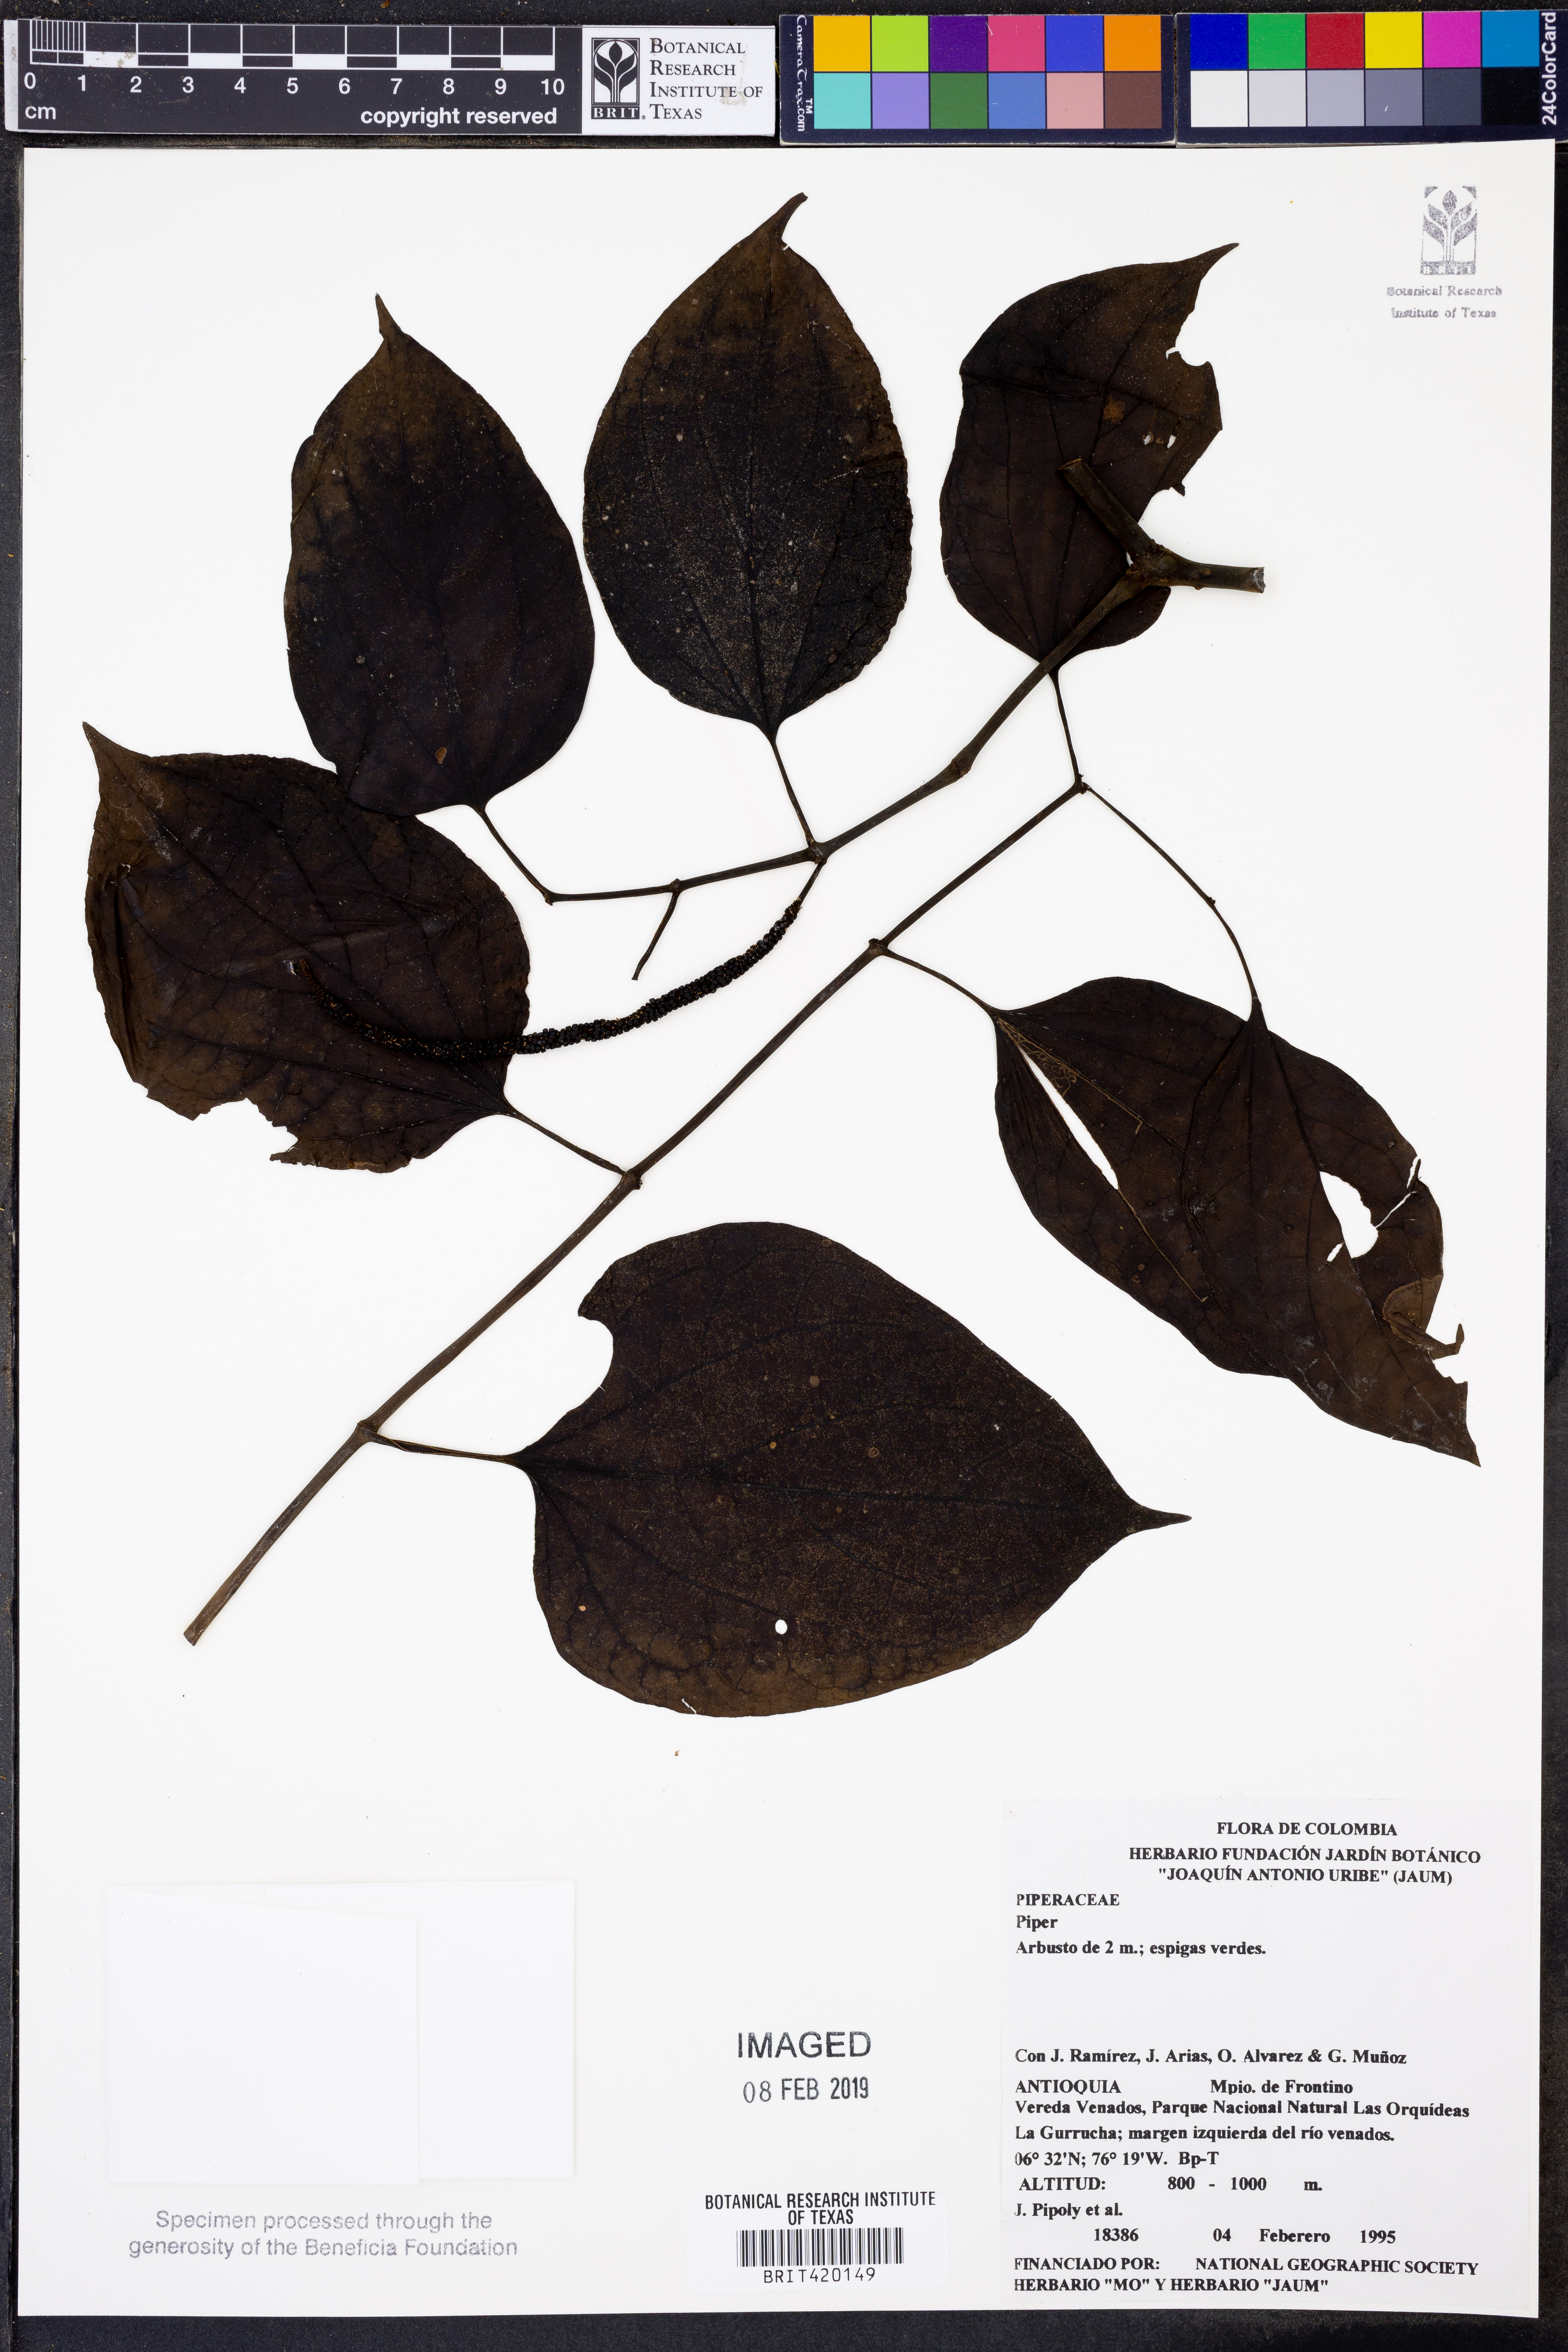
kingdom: Plantae
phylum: Tracheophyta
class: Magnoliopsida
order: Piperales
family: Piperaceae
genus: Piper
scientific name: Piper
